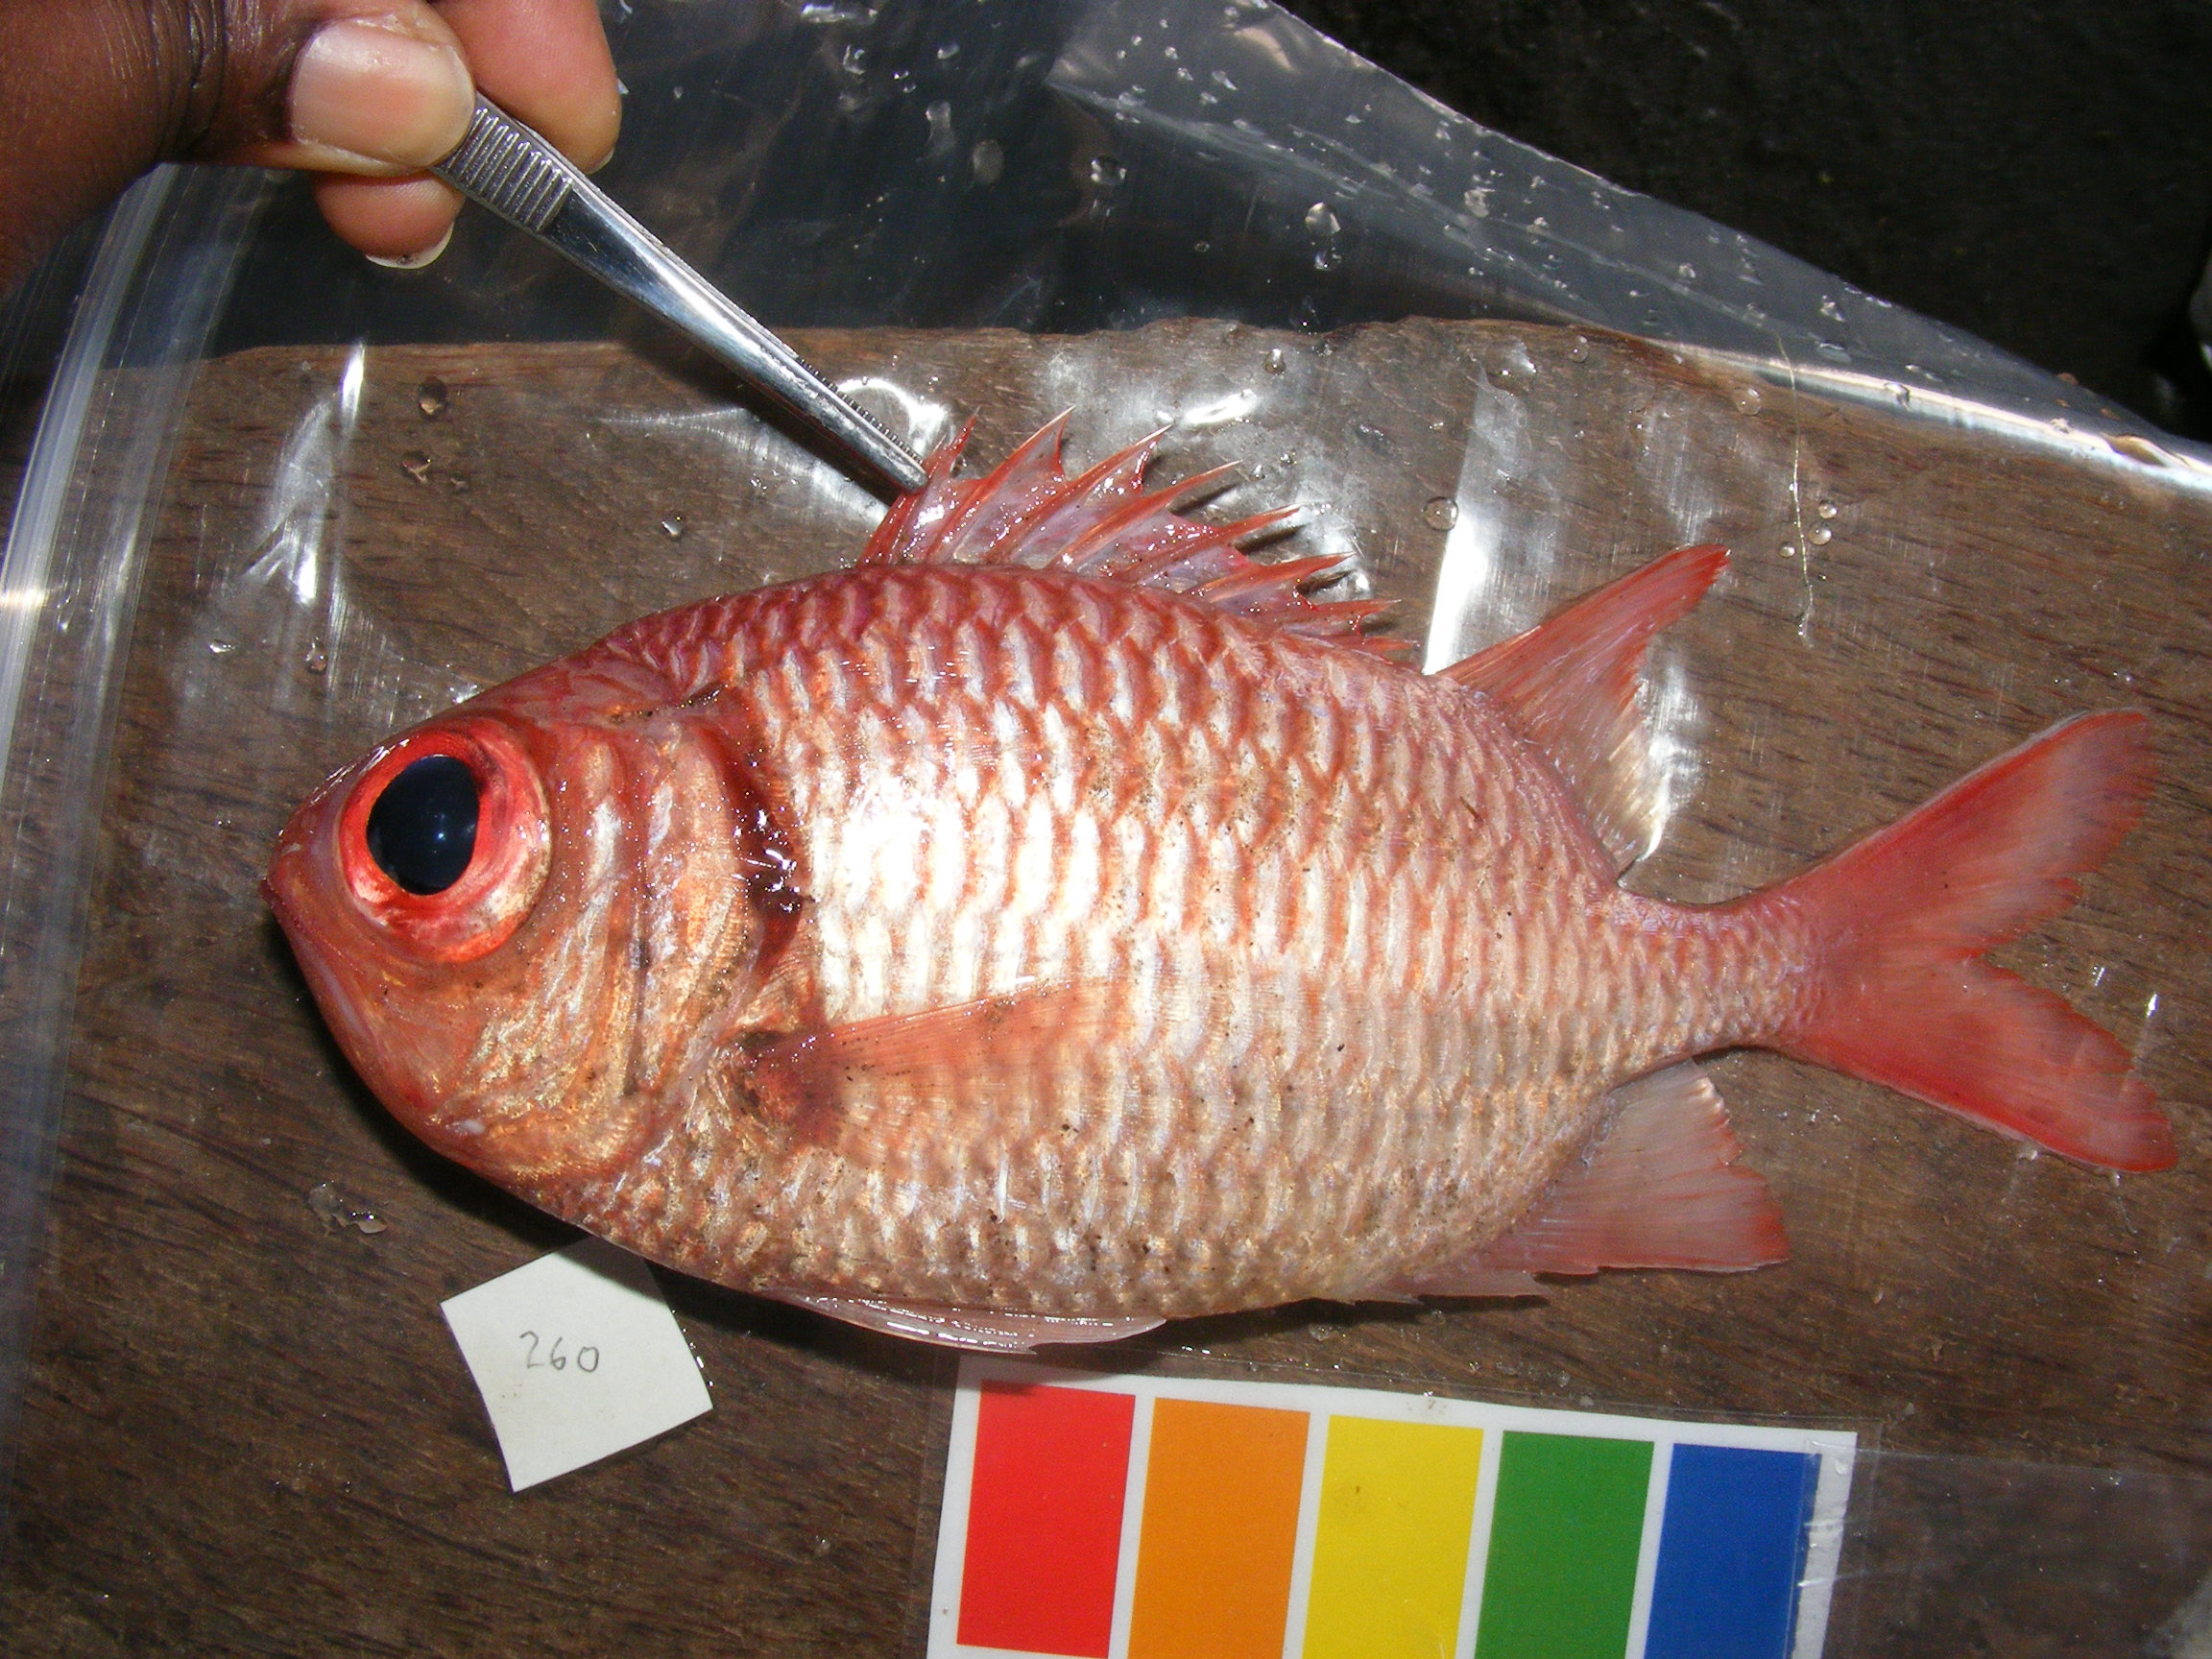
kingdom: Animalia
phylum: Chordata
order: Beryciformes
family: Holocentridae
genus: Myripristis
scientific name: Myripristis hexagona
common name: Blacktip soldierfish
